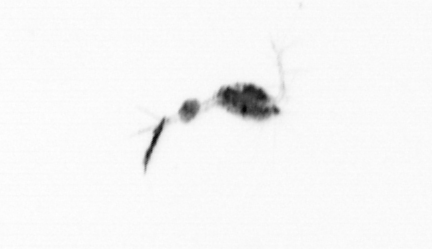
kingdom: Animalia
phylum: Arthropoda
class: Copepoda
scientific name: Copepoda
